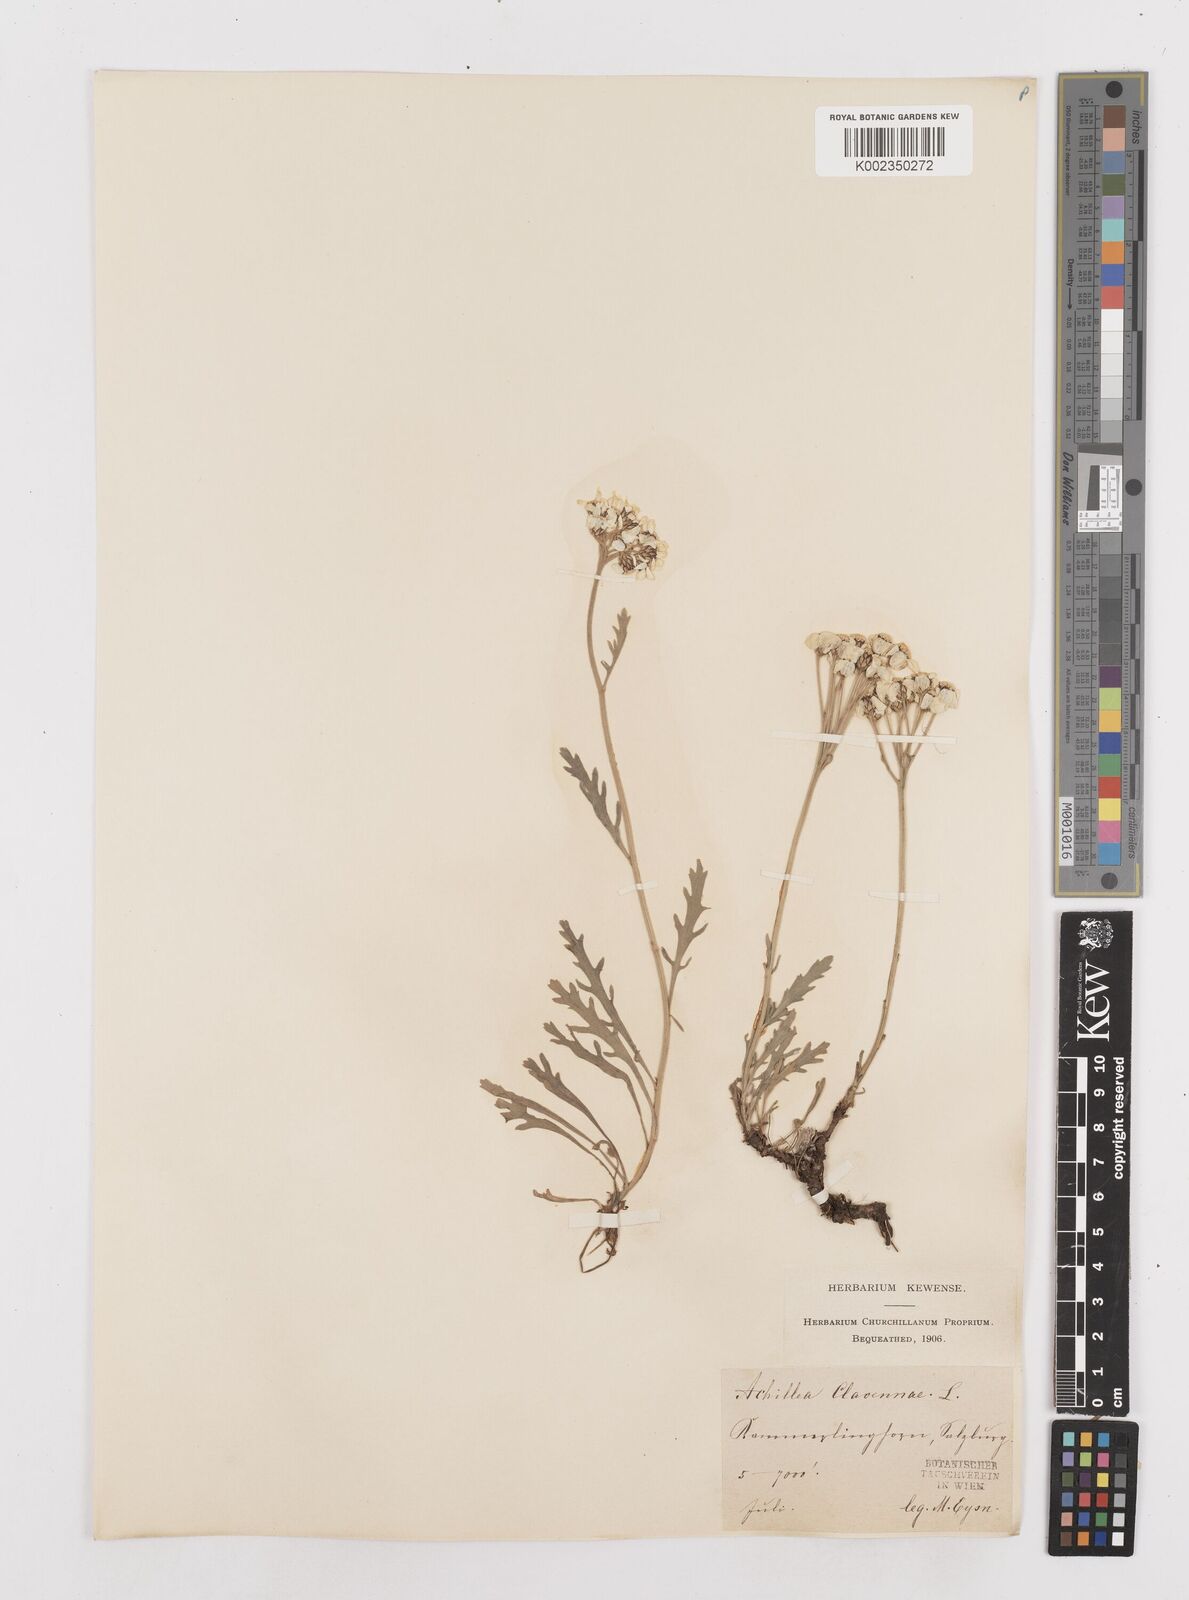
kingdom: Plantae
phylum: Tracheophyta
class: Magnoliopsida
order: Asterales
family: Asteraceae
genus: Achillea
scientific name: Achillea clavennae
